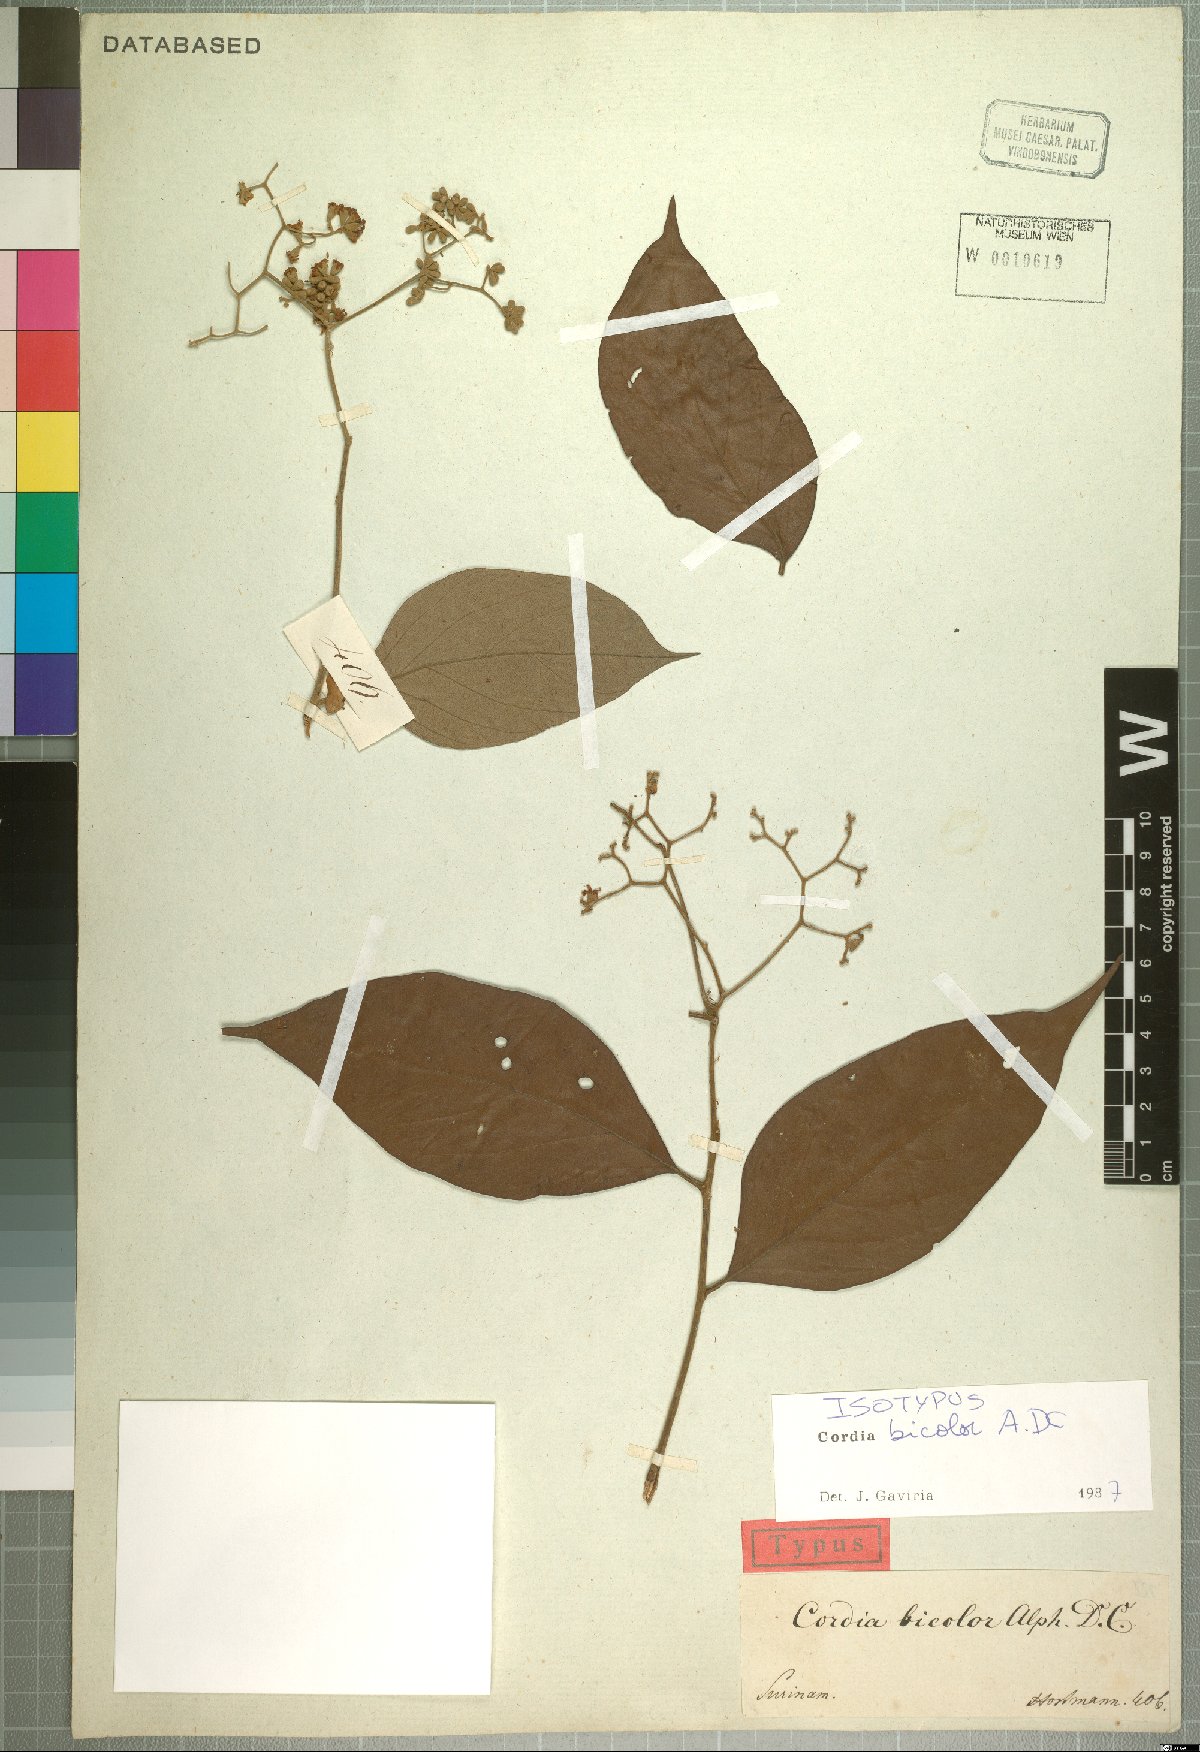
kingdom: Plantae
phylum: Tracheophyta
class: Magnoliopsida
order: Boraginales
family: Cordiaceae
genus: Cordia
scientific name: Cordia bicolor
